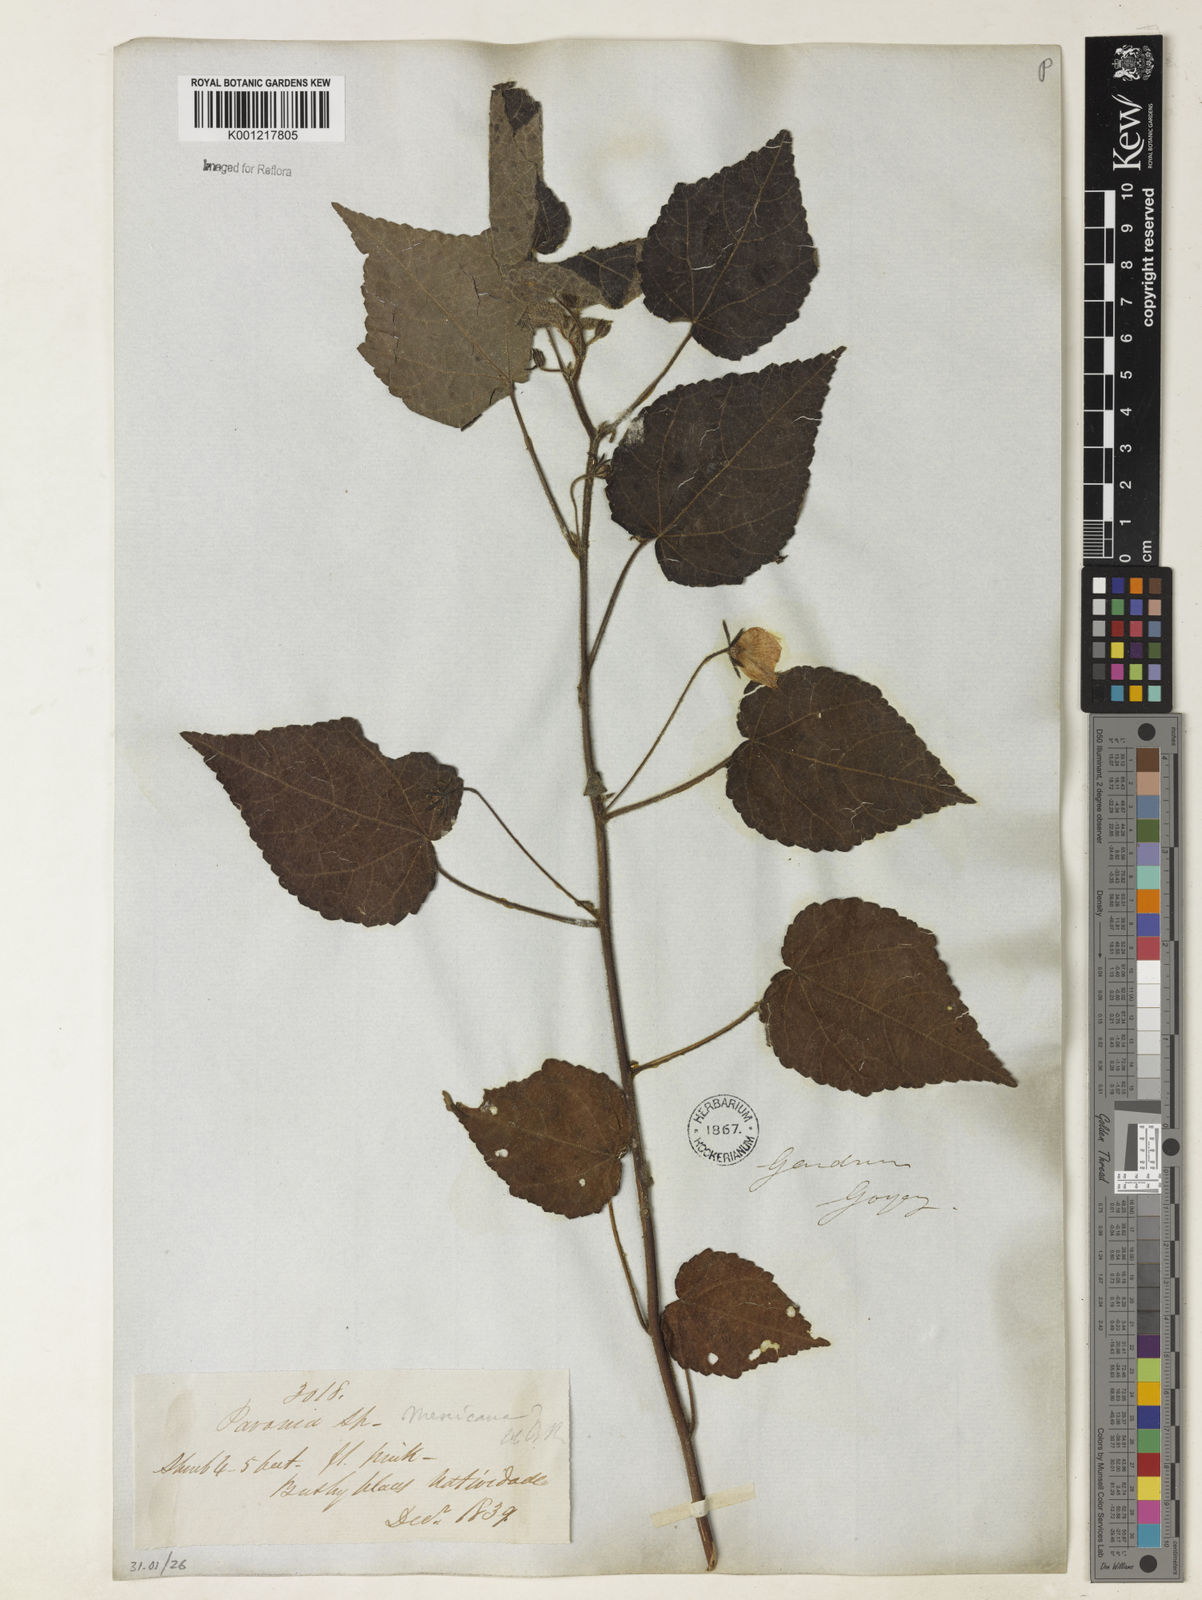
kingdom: Plantae
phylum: Tracheophyta
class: Magnoliopsida
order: Malvales
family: Malvaceae
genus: Pavonia
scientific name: Pavonia
